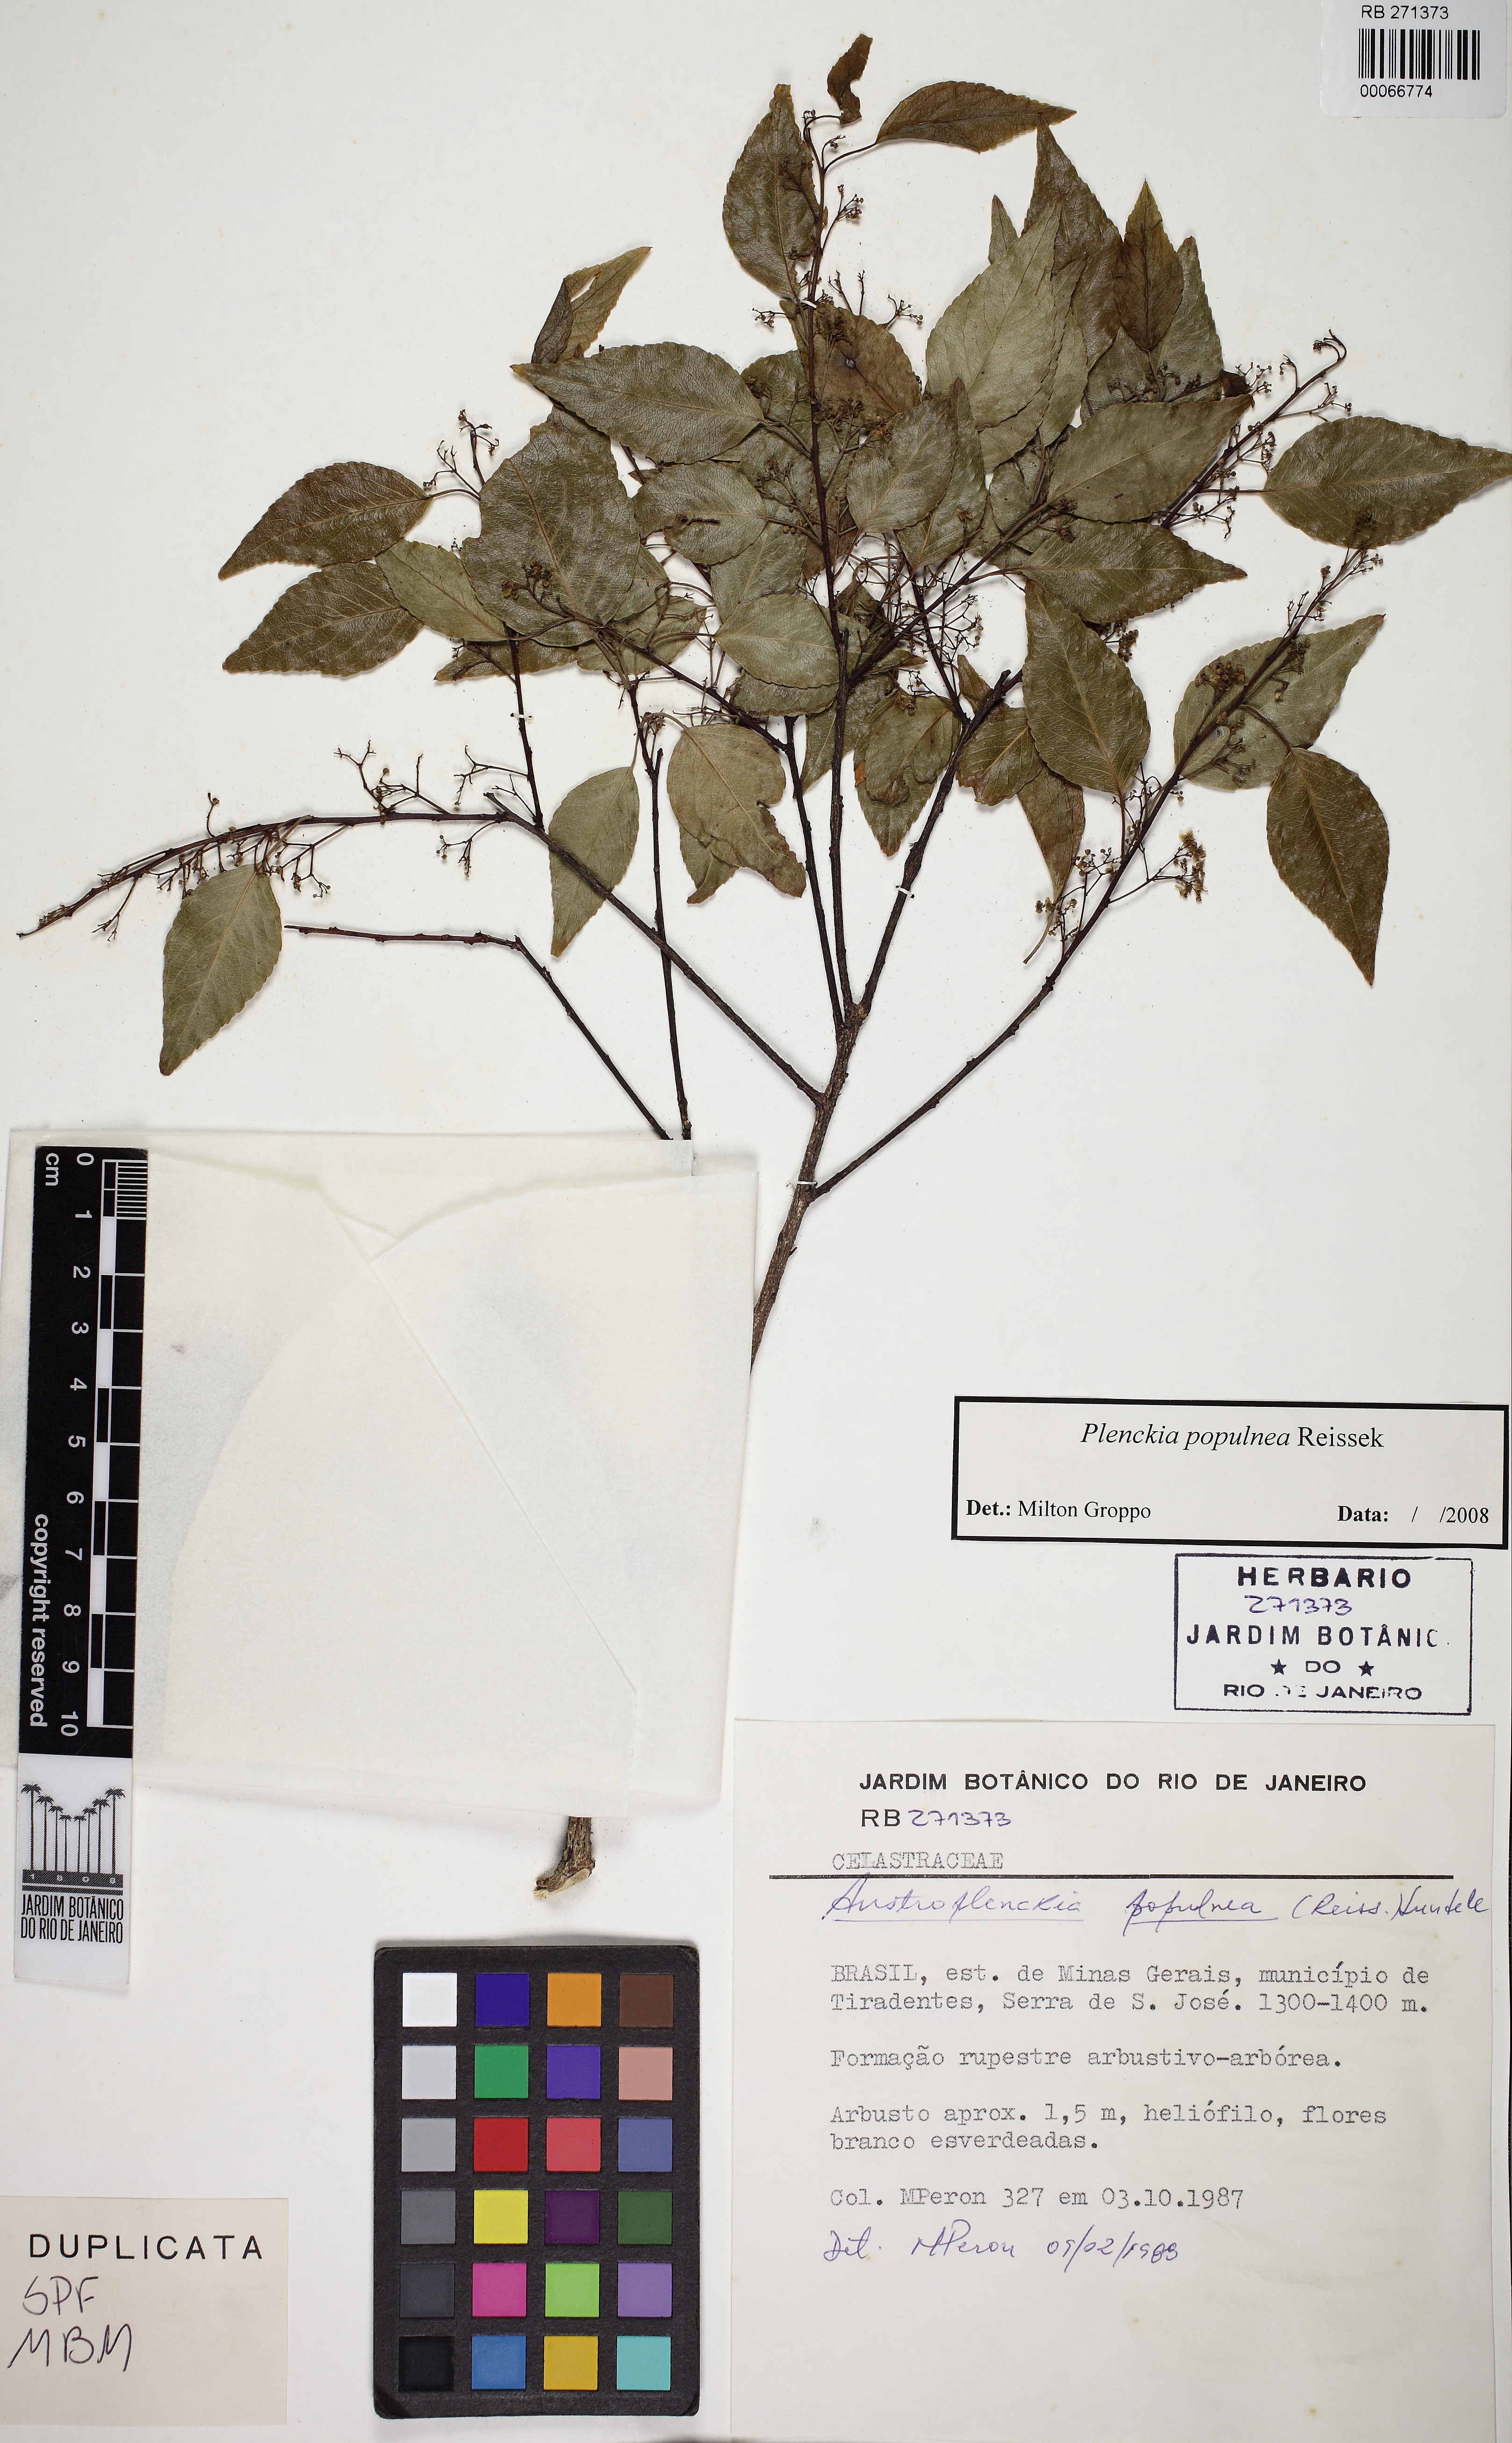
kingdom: Plantae
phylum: Tracheophyta
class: Magnoliopsida
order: Celastrales
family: Celastraceae
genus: Plenckia
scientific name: Plenckia populnea
